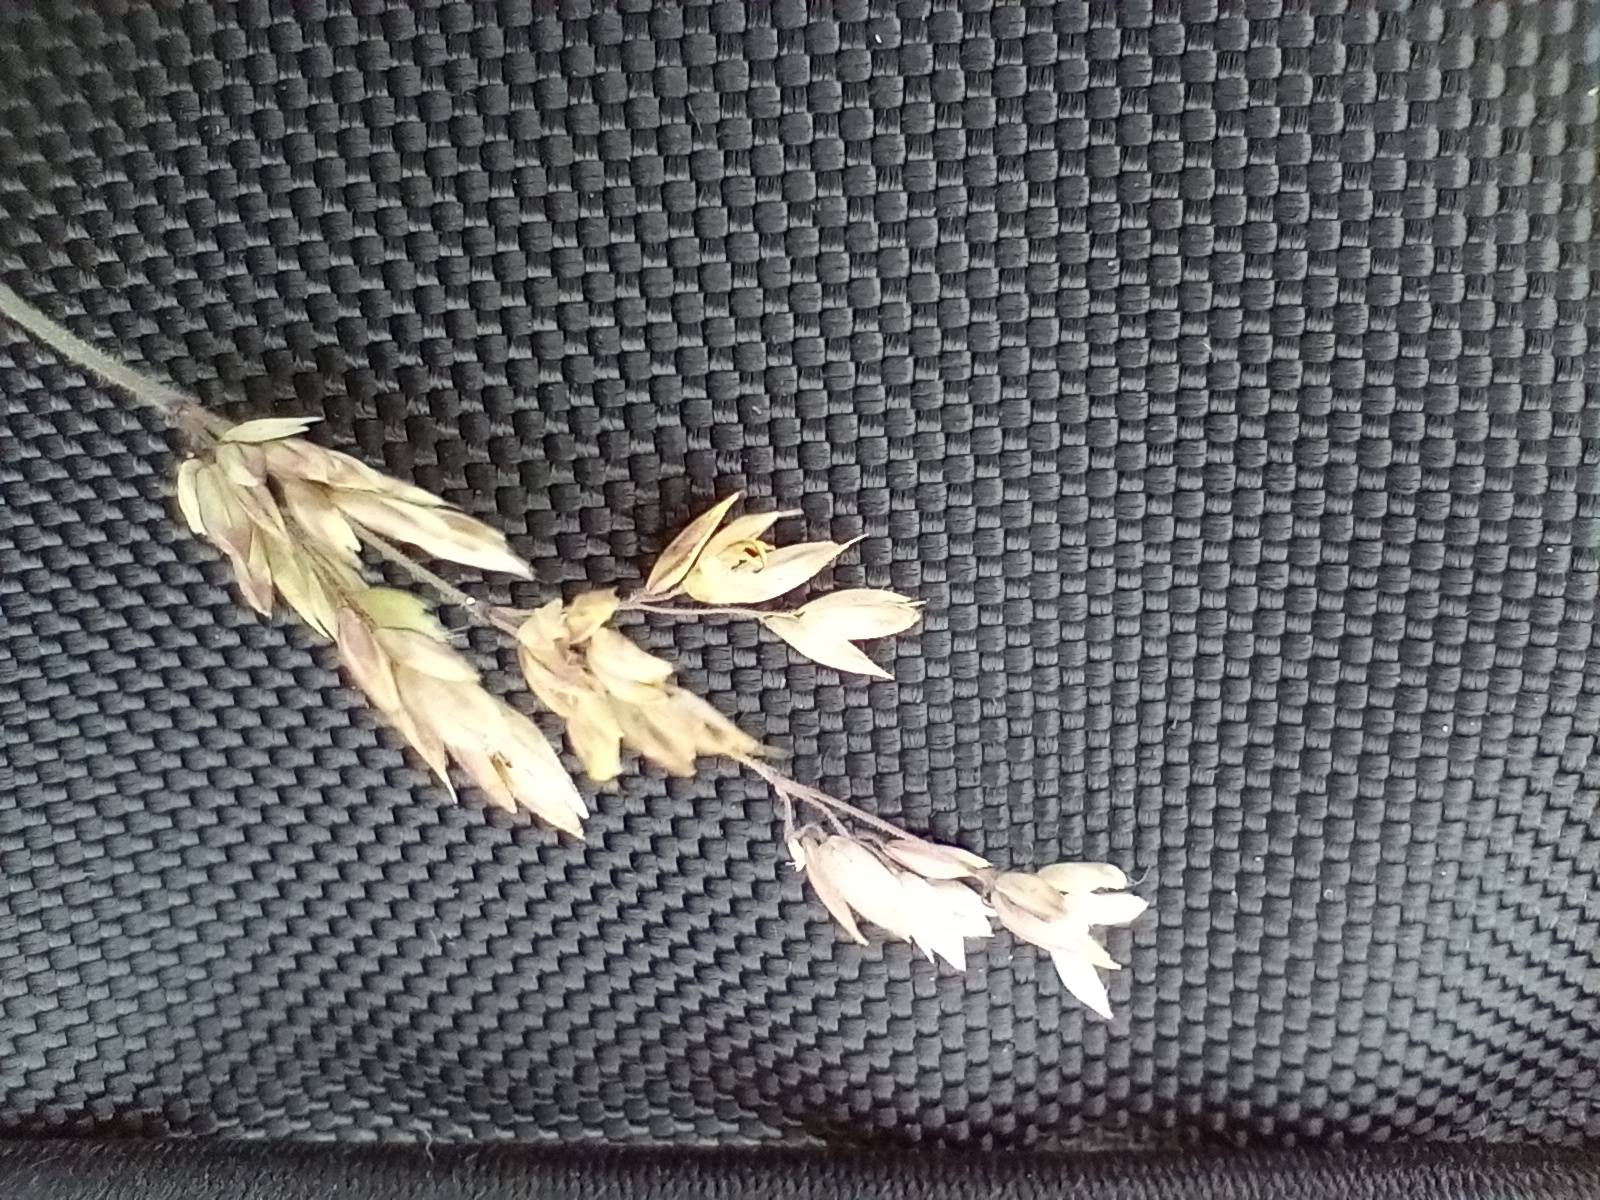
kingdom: Plantae
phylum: Tracheophyta
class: Liliopsida
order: Poales
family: Poaceae
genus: Holcus
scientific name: Holcus lanatus
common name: Fløjlsgræs
